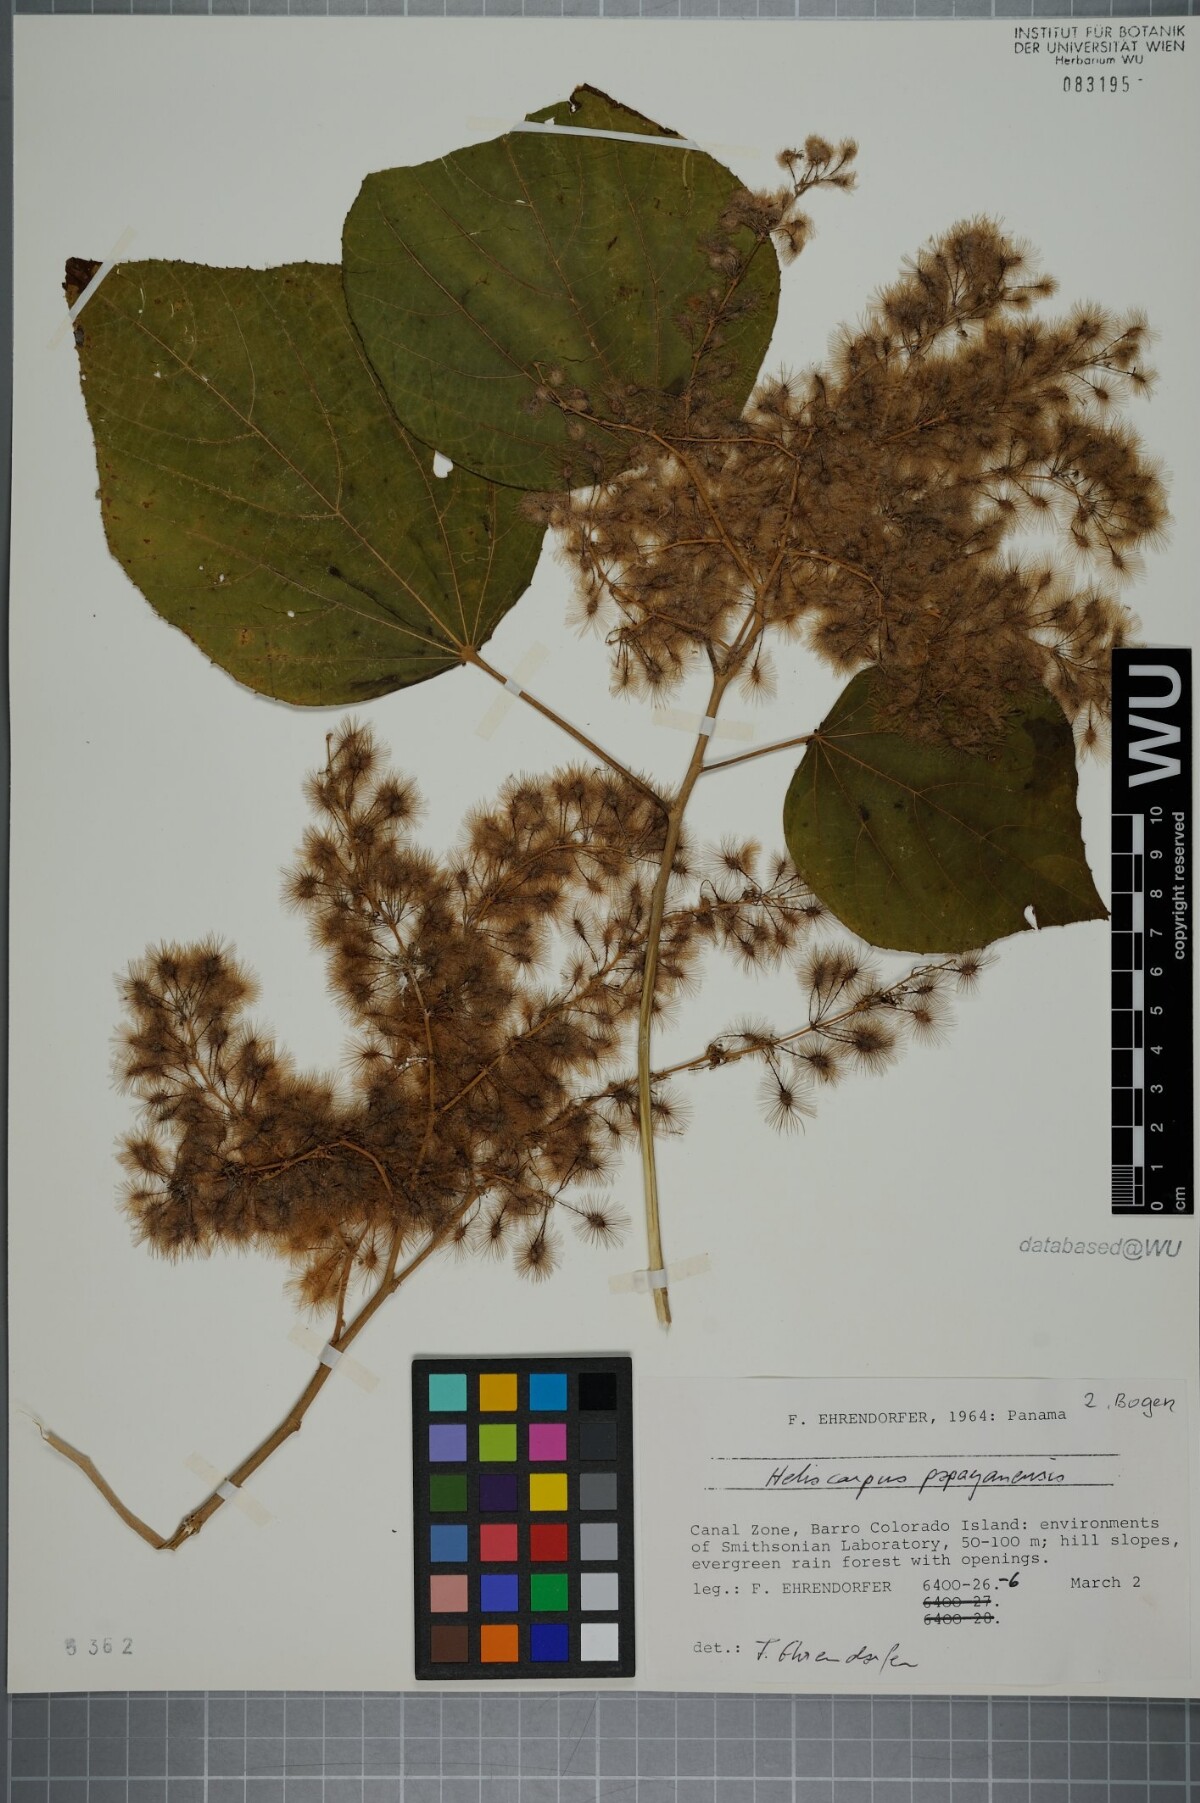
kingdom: Plantae
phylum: Tracheophyta
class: Magnoliopsida
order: Malvales
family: Malvaceae
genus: Heliocarpus
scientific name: Heliocarpus americanus
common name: White moho
